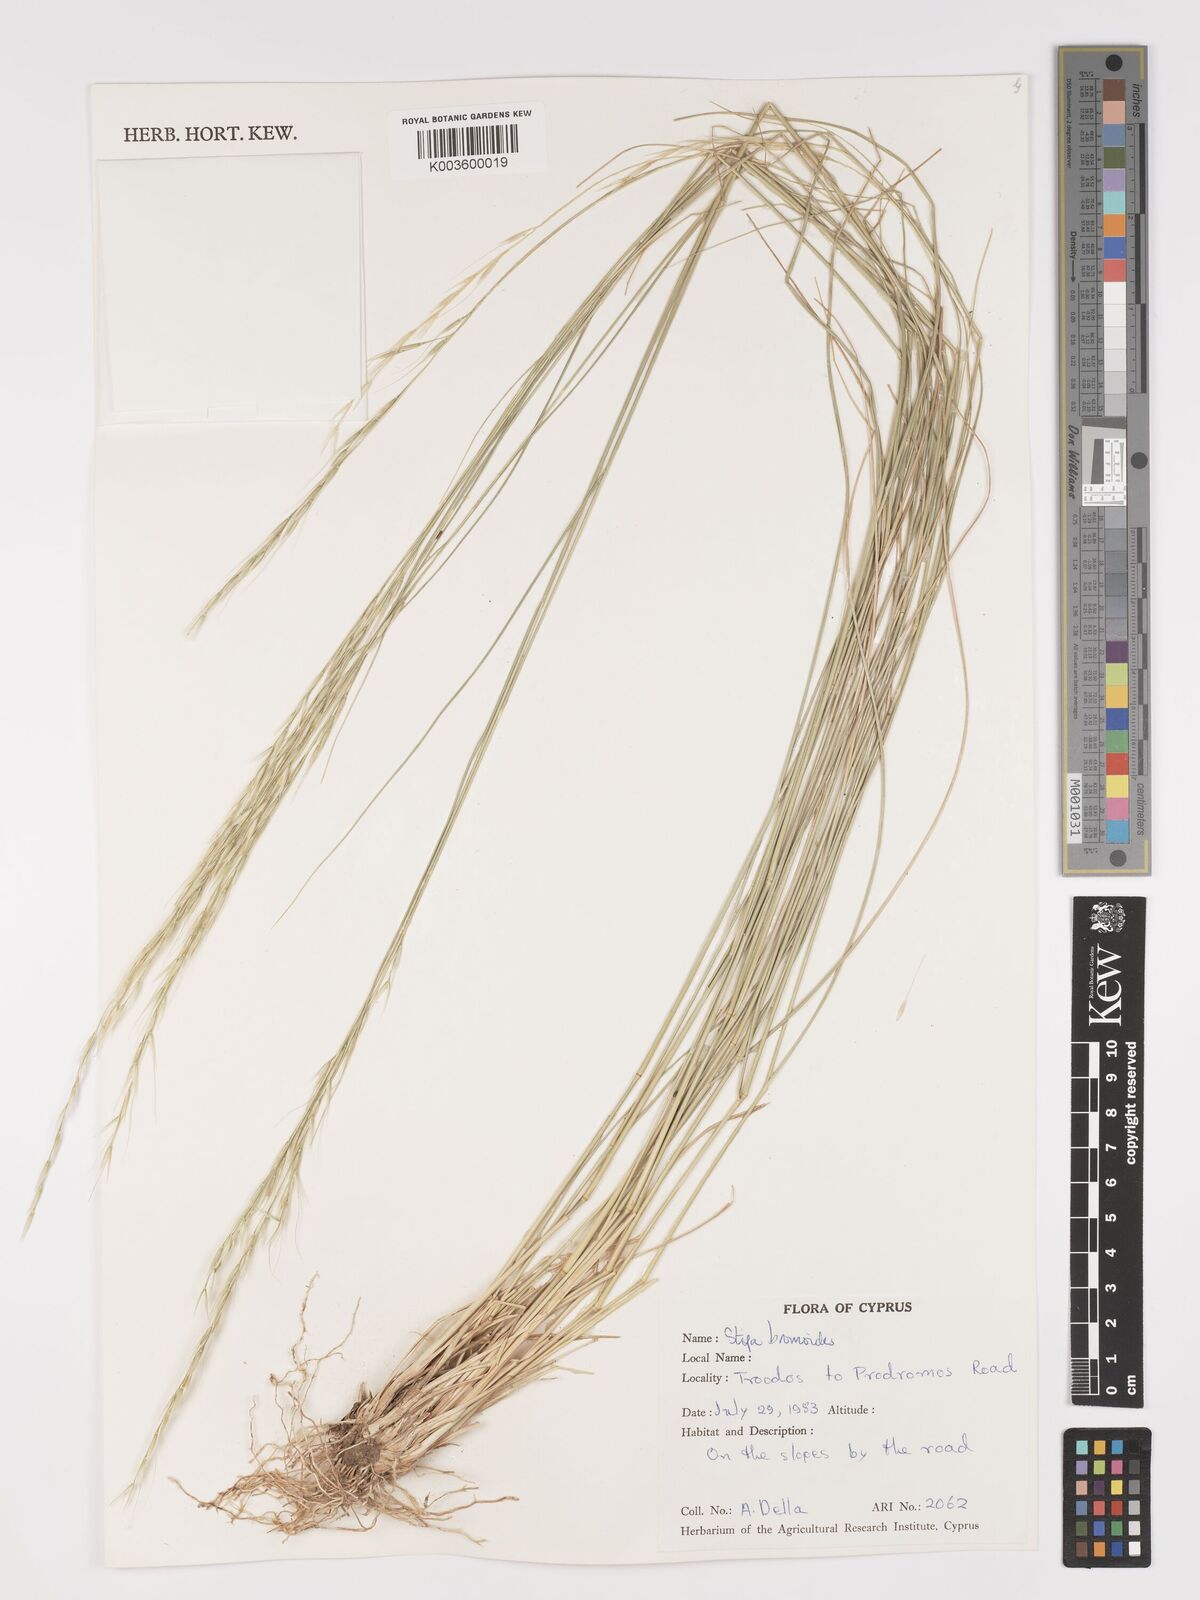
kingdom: Plantae
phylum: Tracheophyta
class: Liliopsida
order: Poales
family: Poaceae
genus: Achnatherum
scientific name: Achnatherum bromoides
